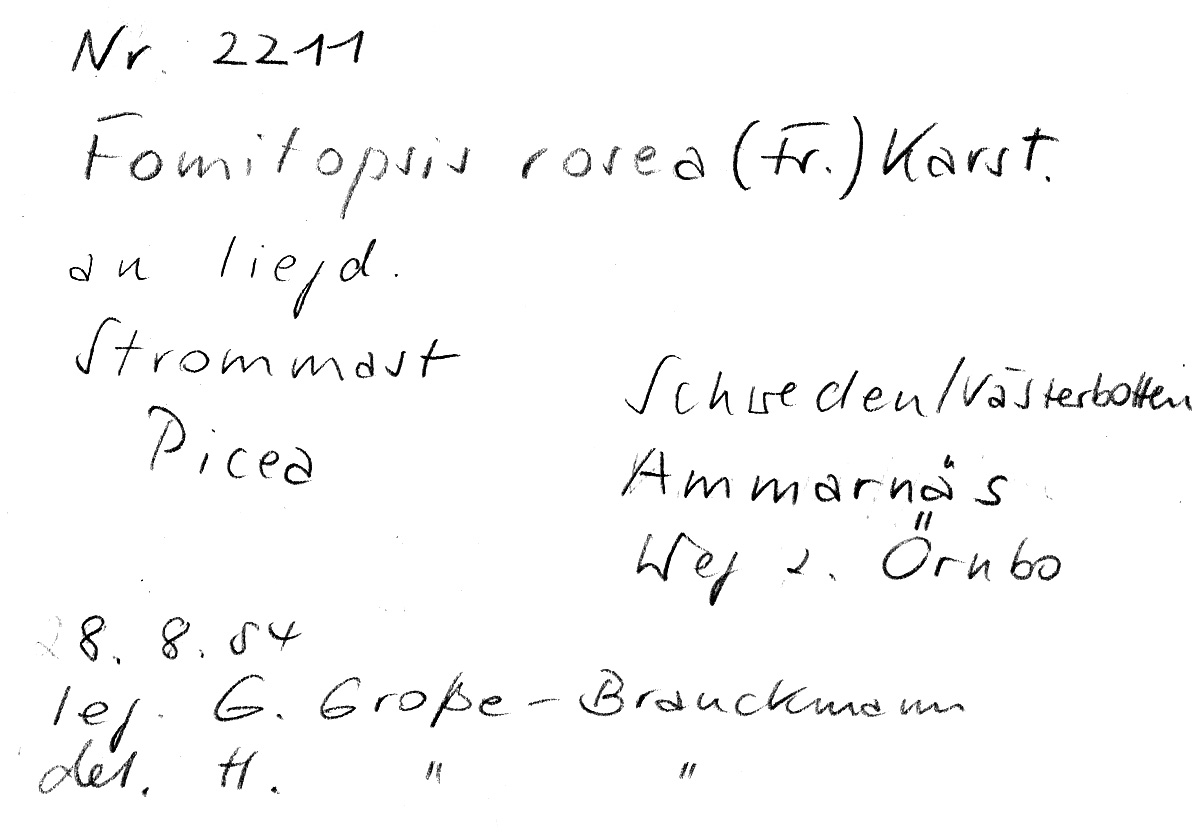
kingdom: Plantae
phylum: Tracheophyta
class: Pinopsida
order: Pinales
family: Pinaceae
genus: Picea
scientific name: Picea
